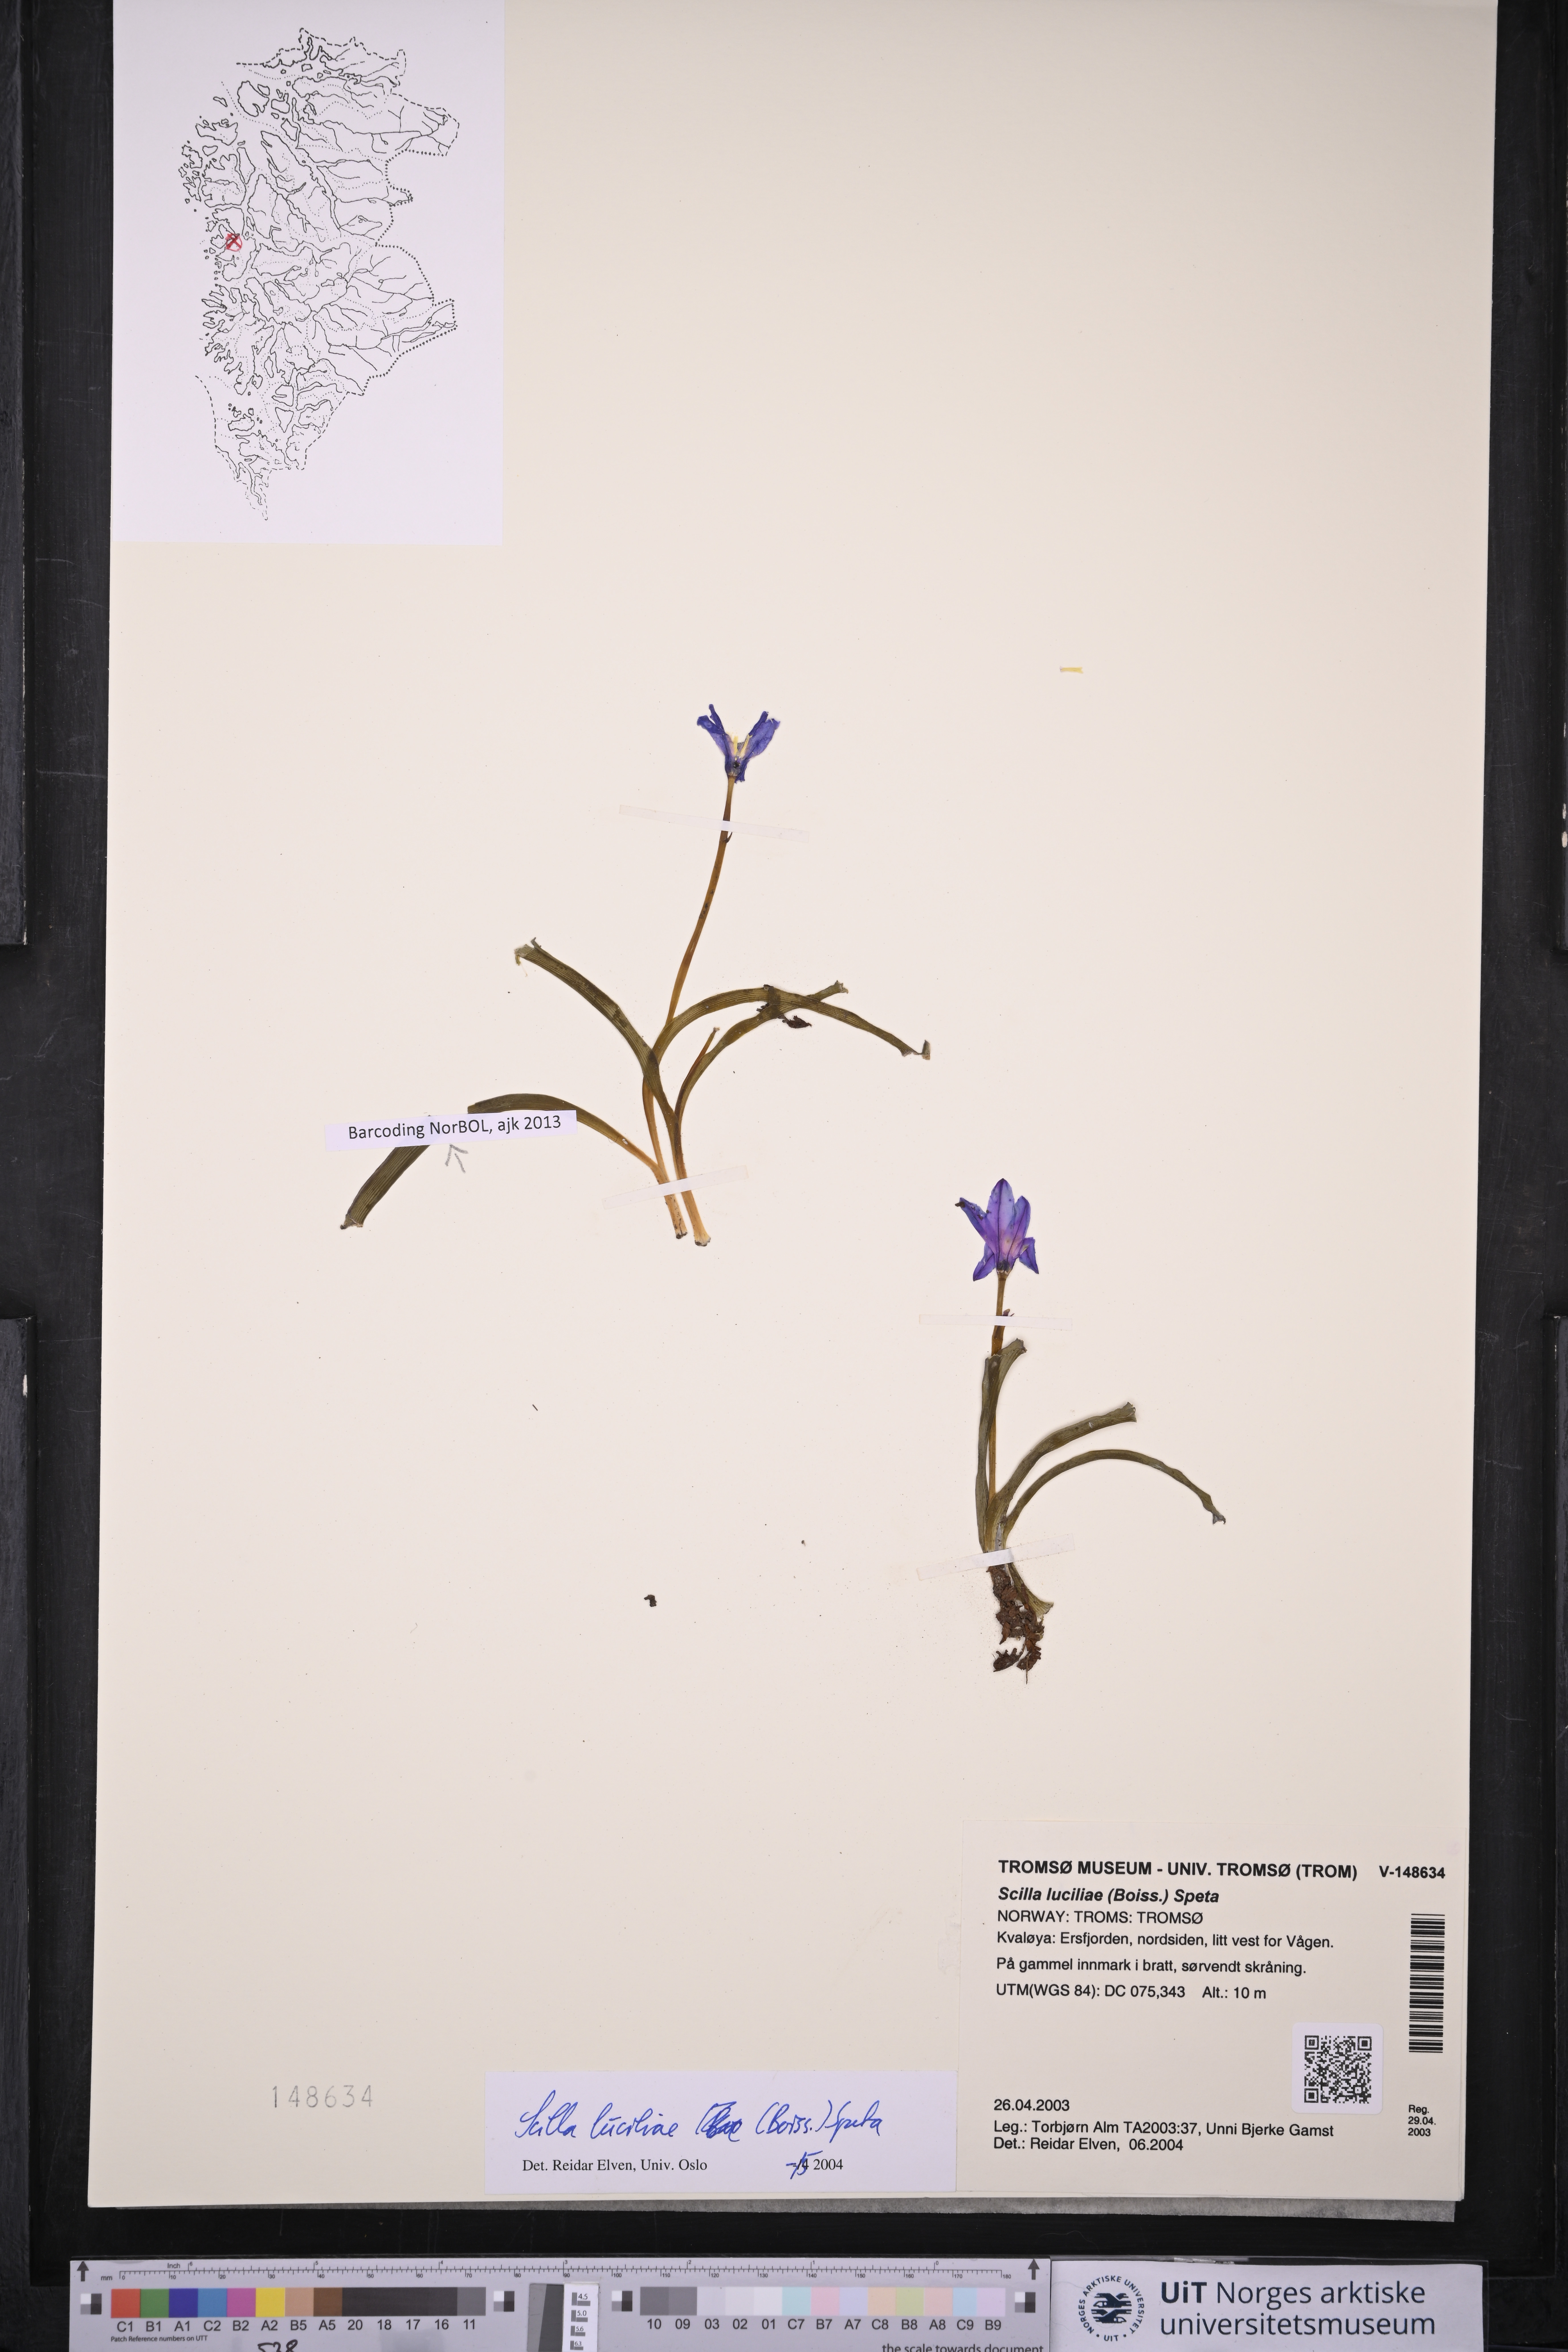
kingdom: Plantae
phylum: Tracheophyta
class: Liliopsida
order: Asparagales
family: Asparagaceae
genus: Scilla
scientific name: Scilla luciliae
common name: Boissier's glory-of-the-snow
